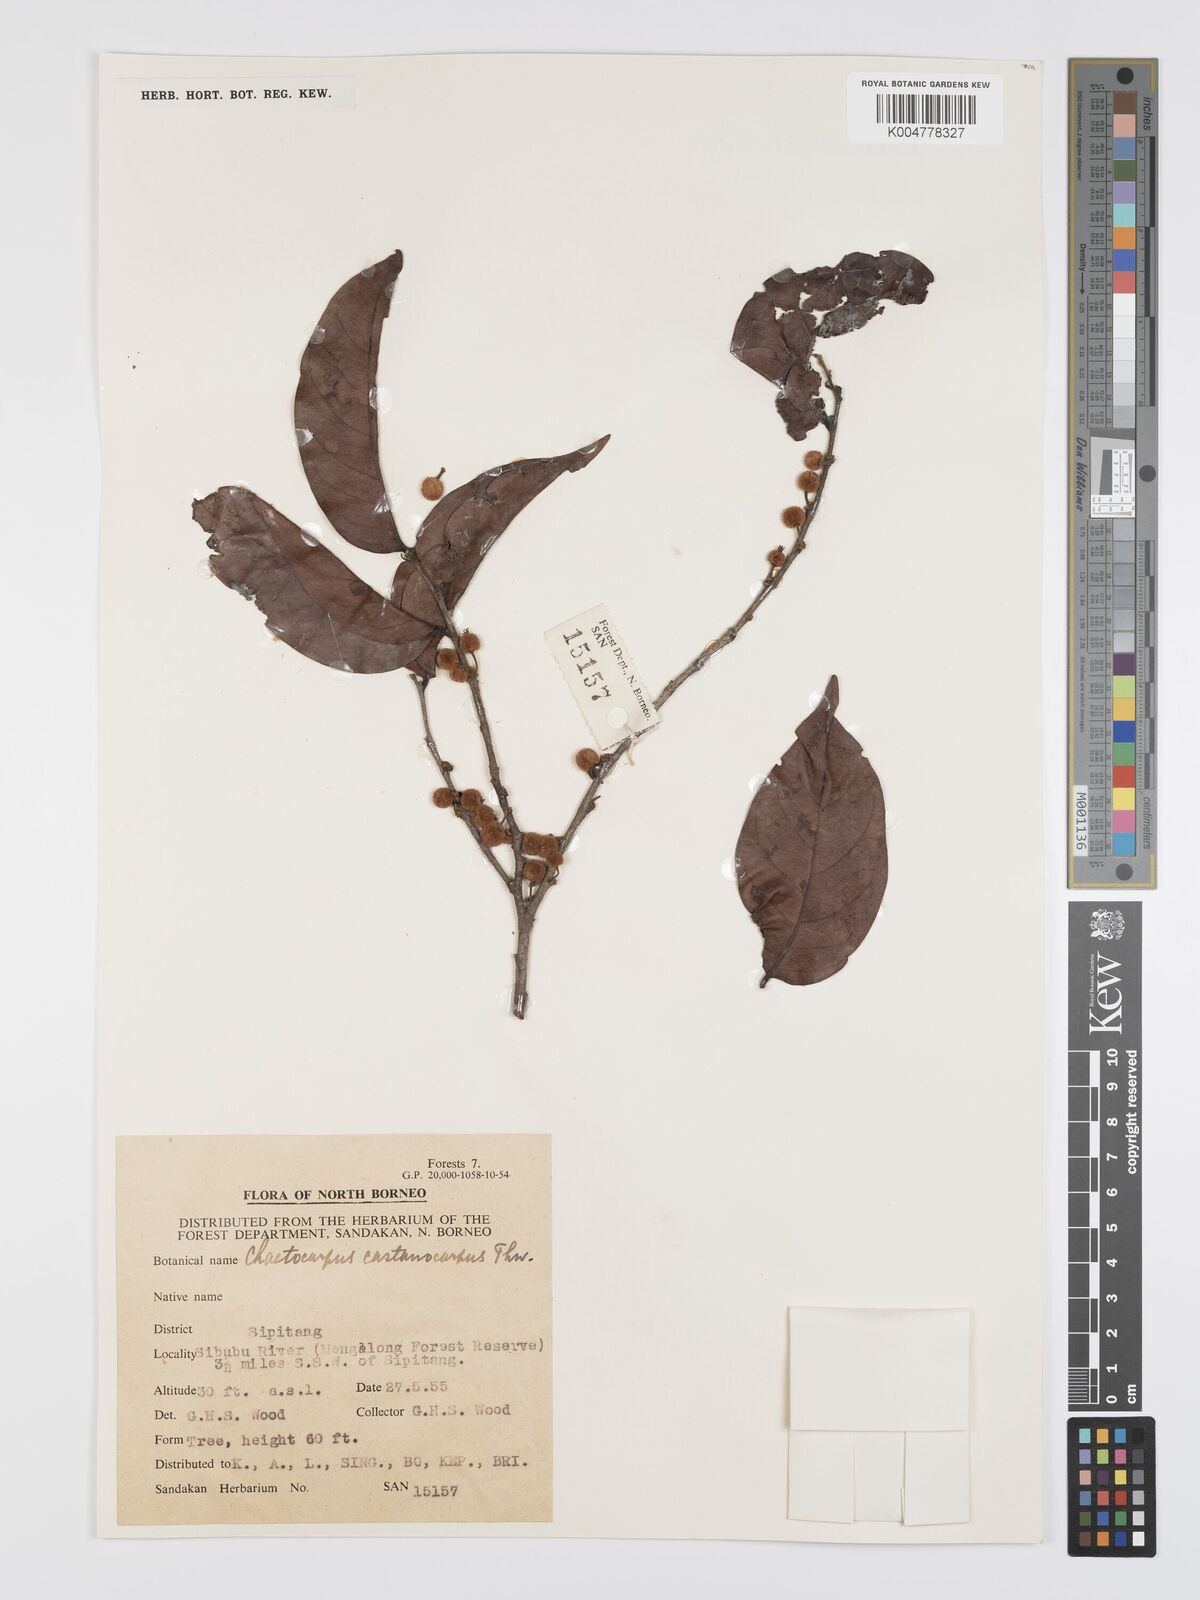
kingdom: Plantae
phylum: Tracheophyta
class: Magnoliopsida
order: Malpighiales
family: Peraceae
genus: Chaetocarpus
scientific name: Chaetocarpus castanocarpus
